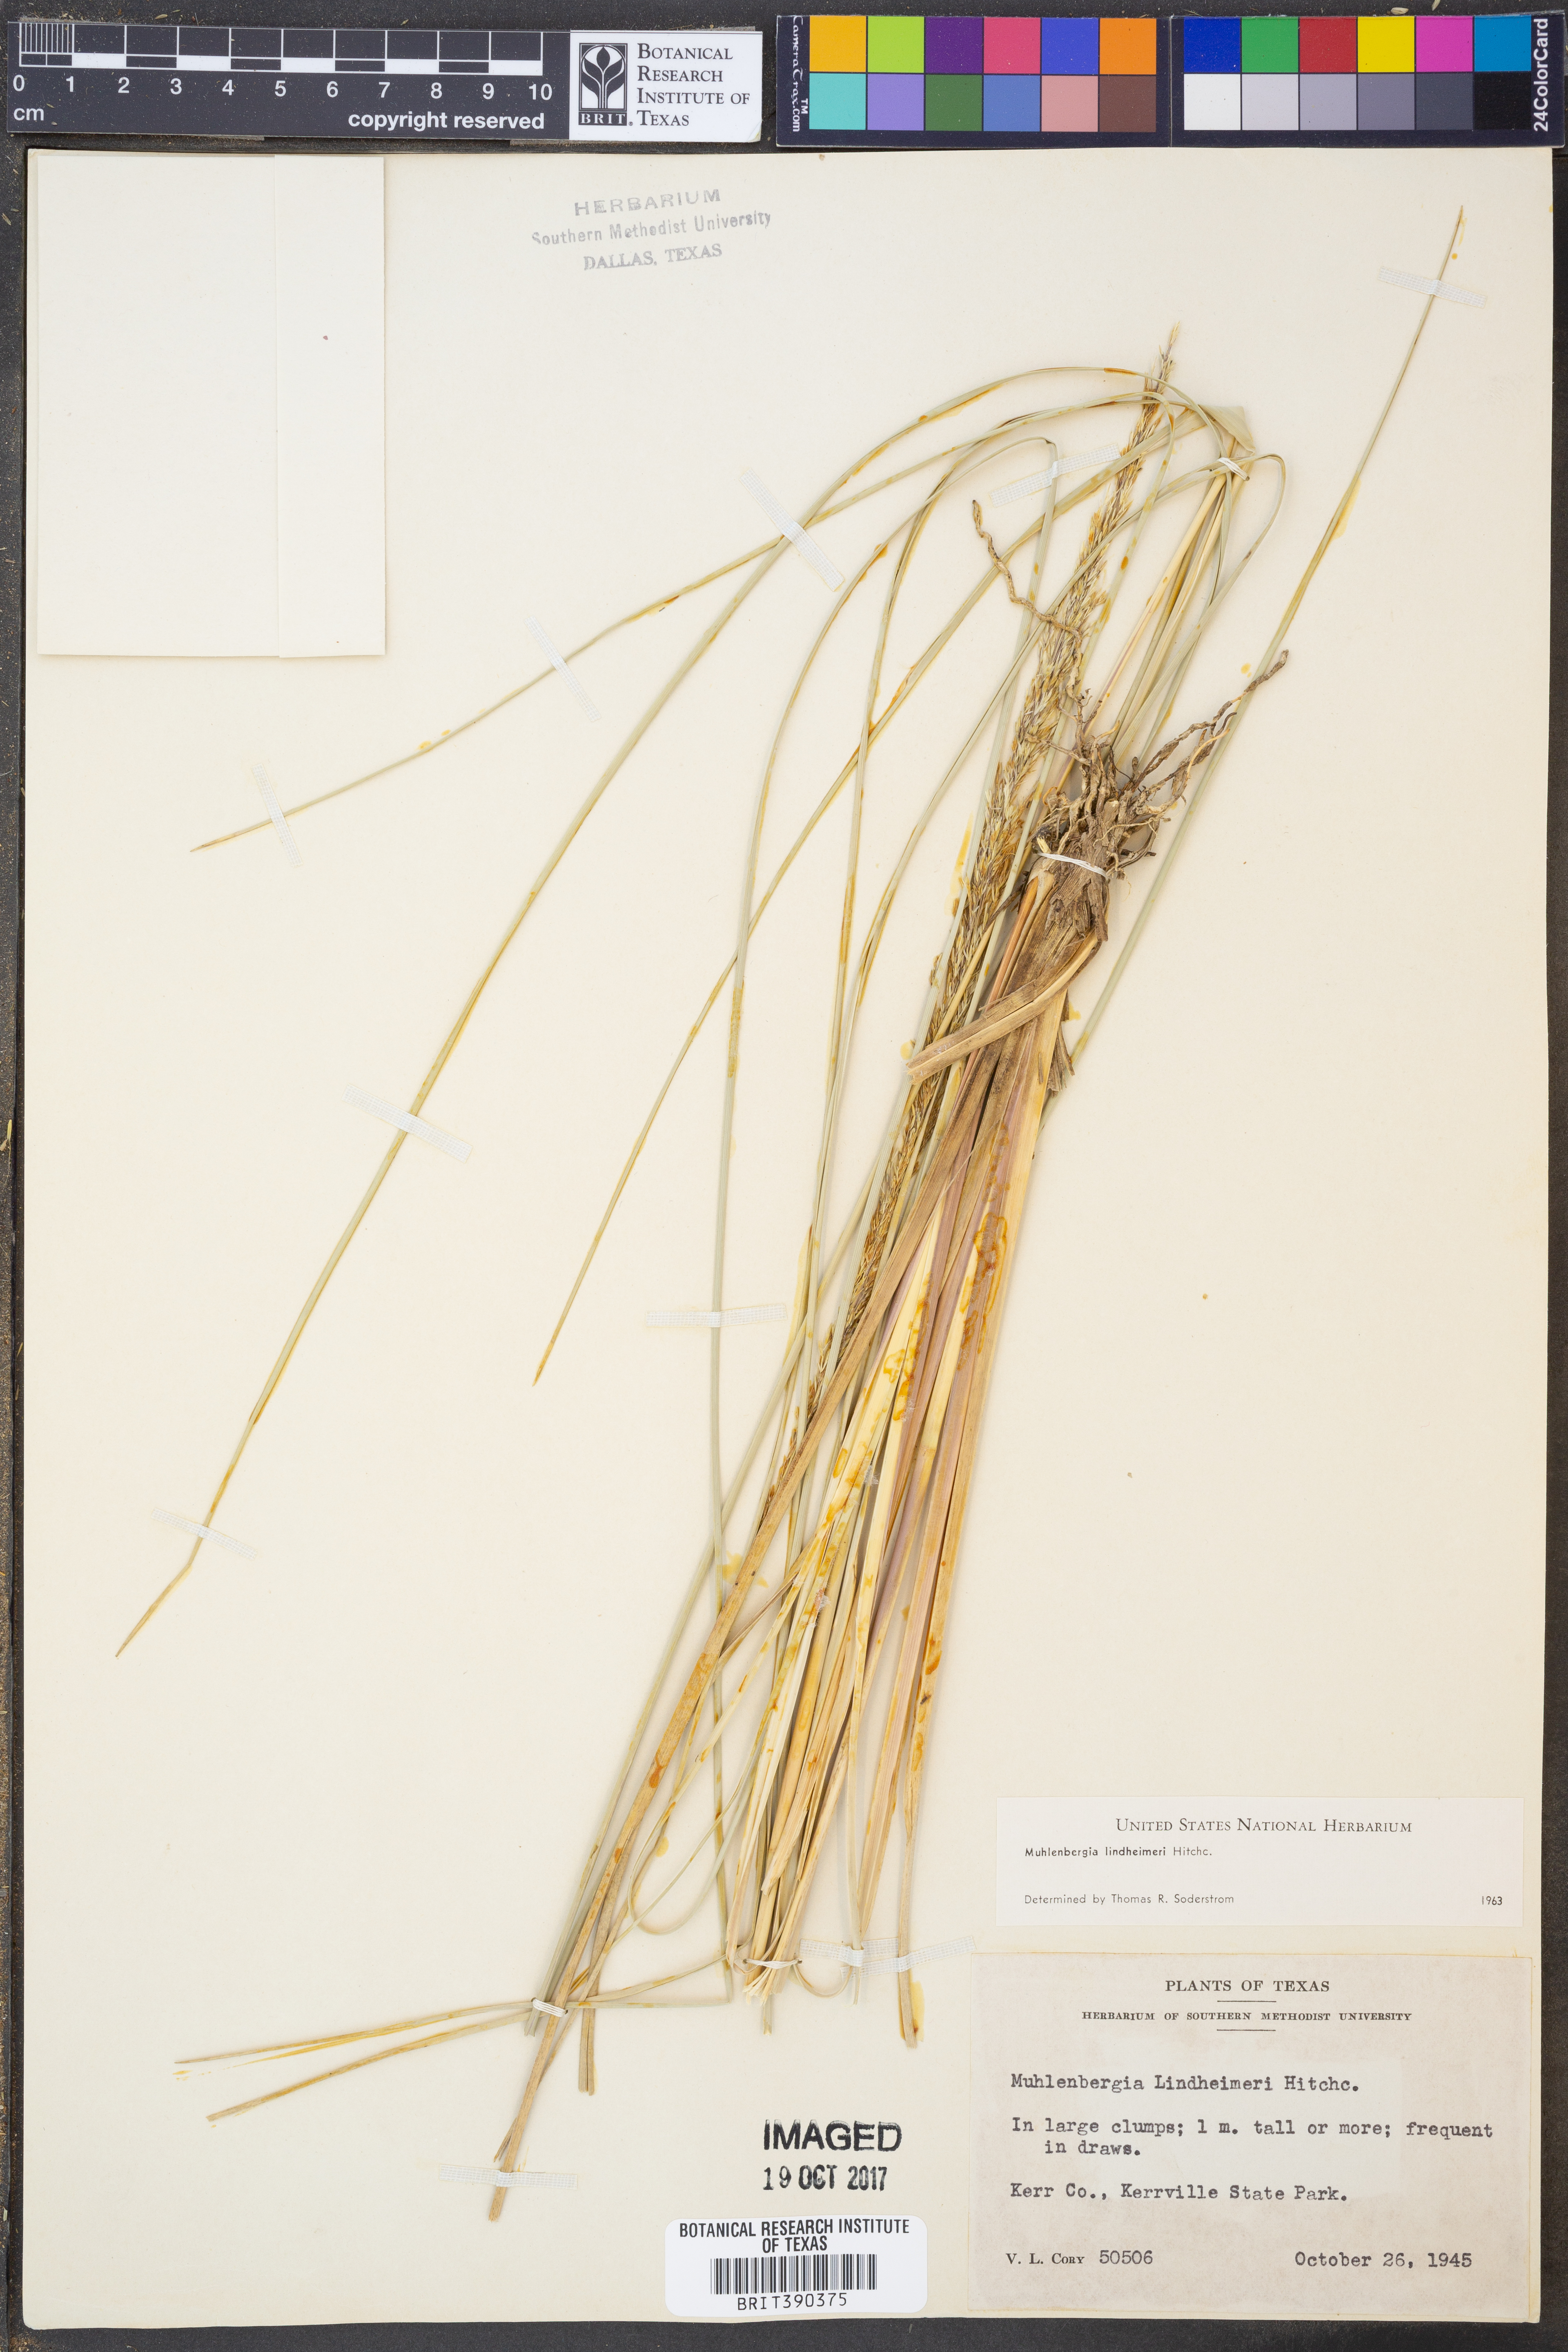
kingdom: Plantae
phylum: Tracheophyta
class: Liliopsida
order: Poales
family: Poaceae
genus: Muhlenbergia
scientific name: Muhlenbergia lindheimeri
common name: Lindheimer's muhly
